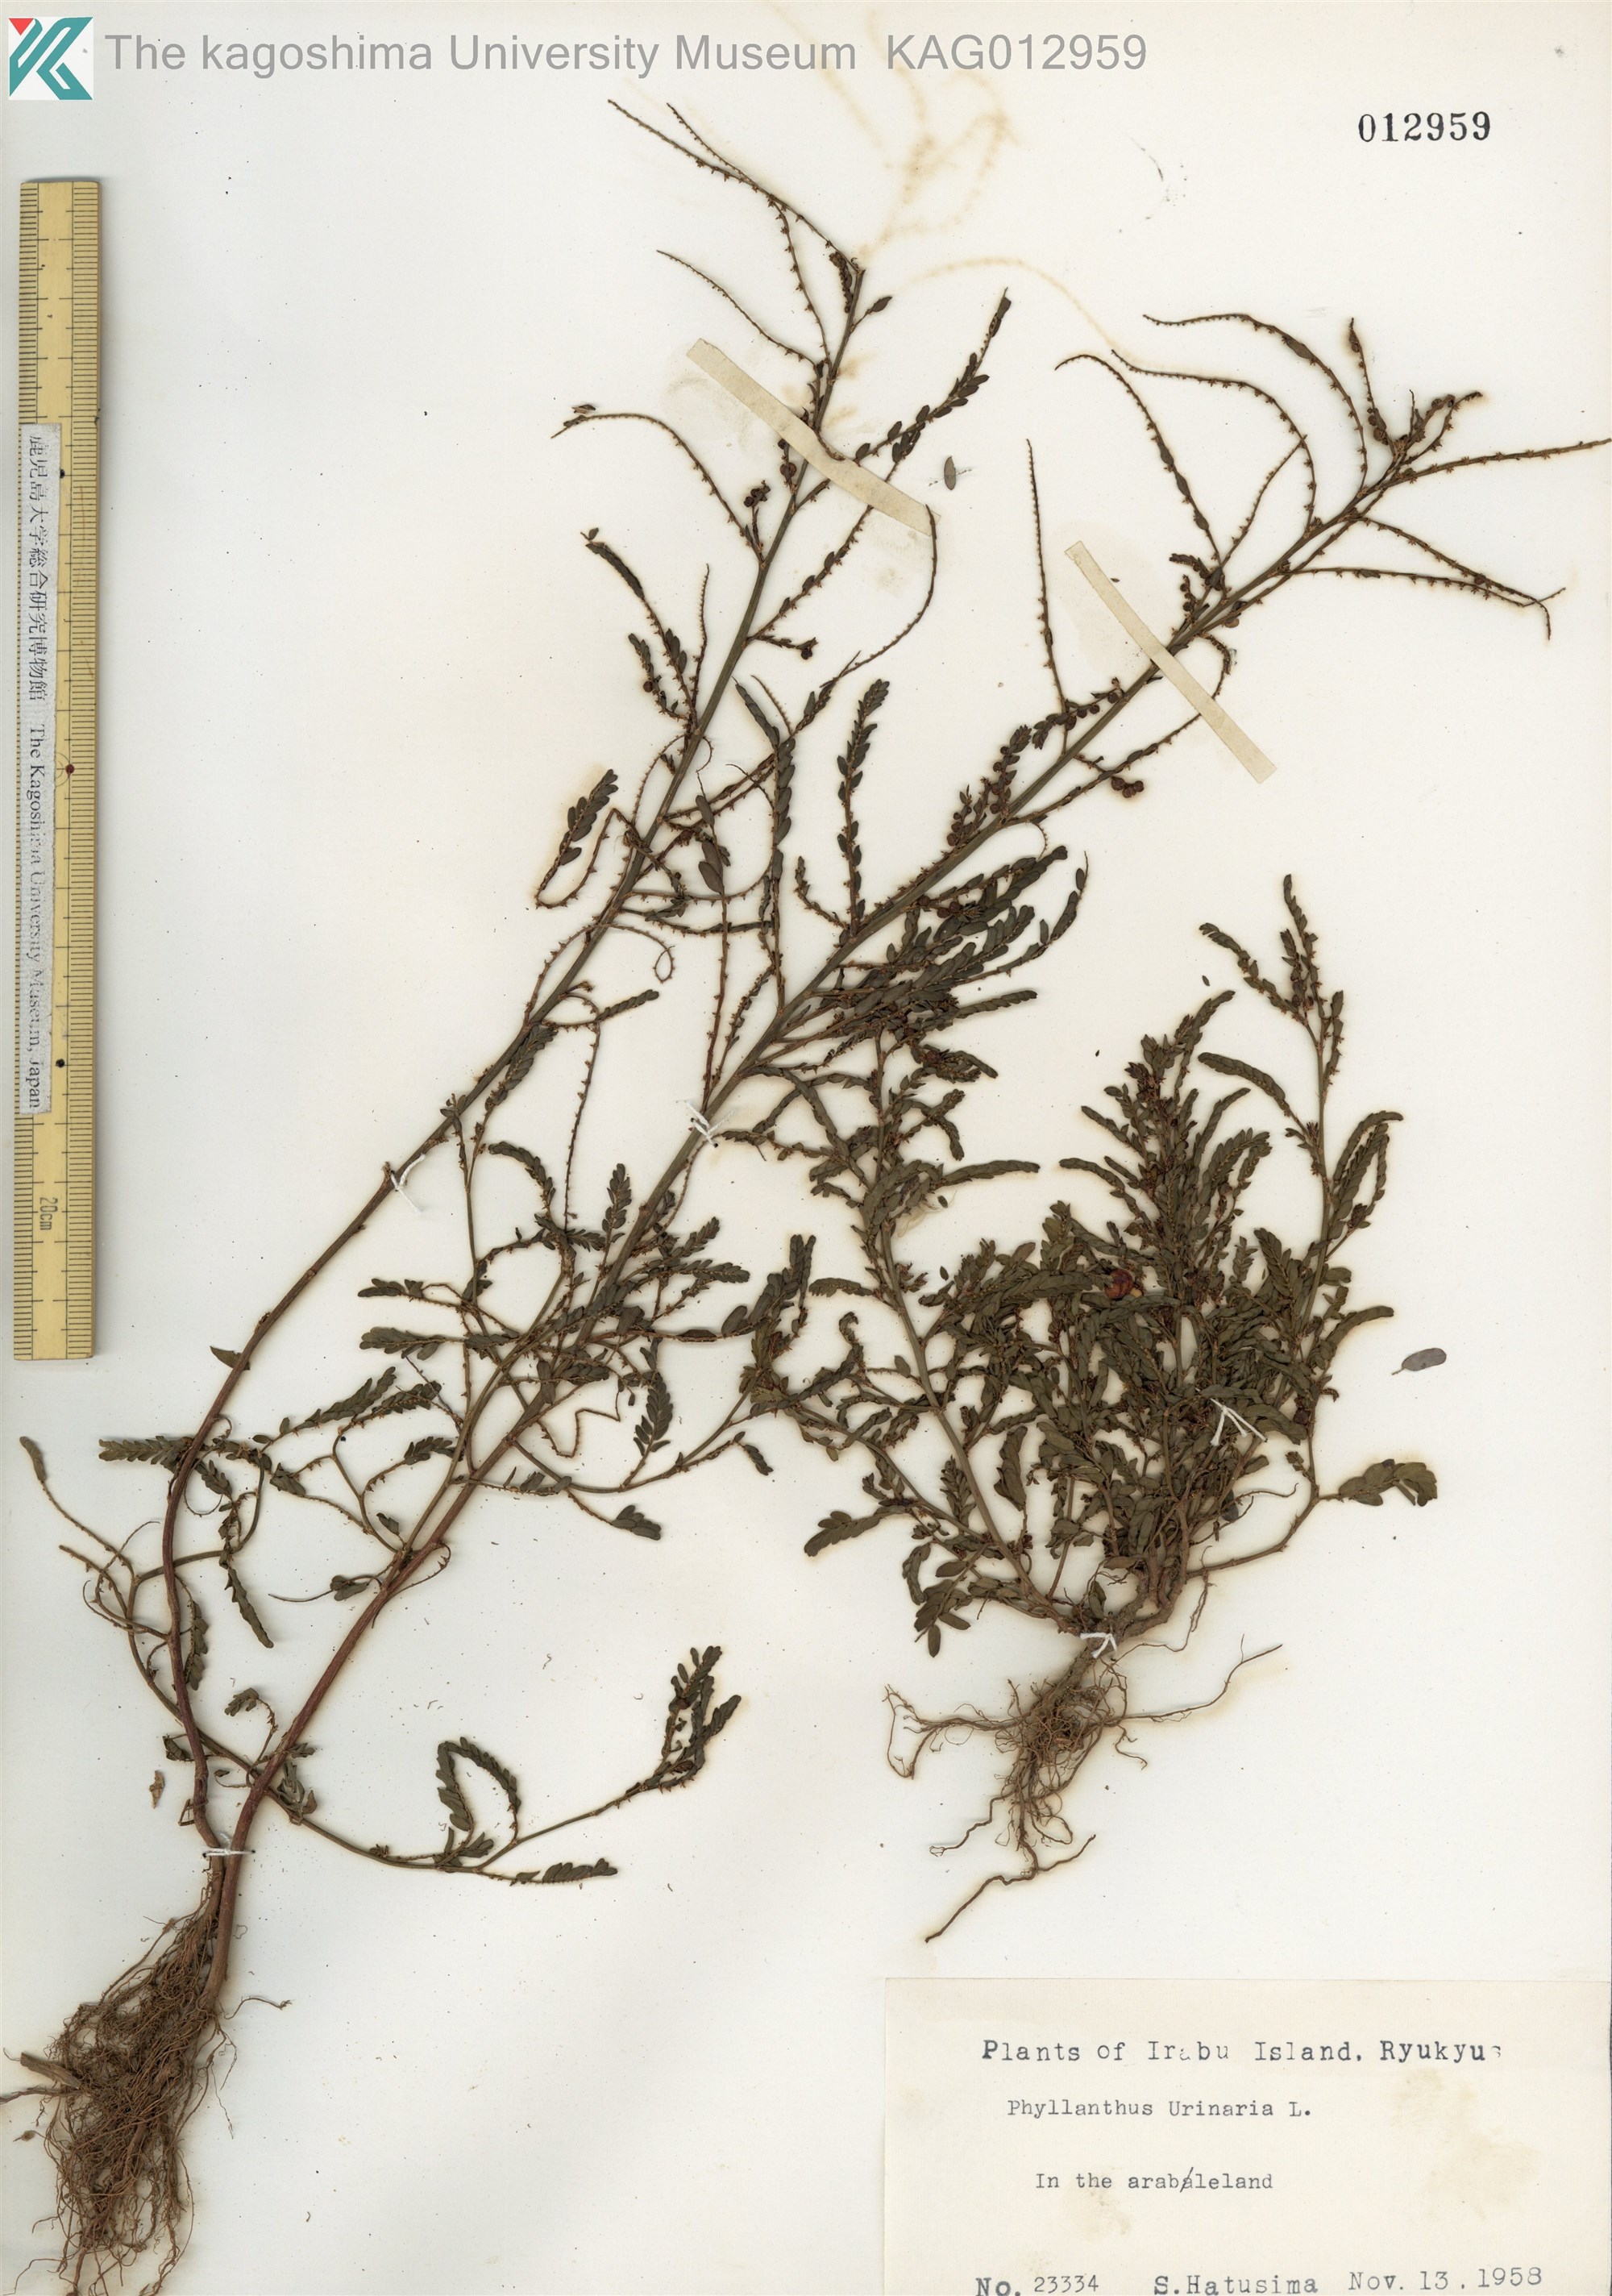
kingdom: Plantae
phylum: Tracheophyta
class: Magnoliopsida
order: Malpighiales
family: Phyllanthaceae
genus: Phyllanthus
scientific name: Phyllanthus urinaria
